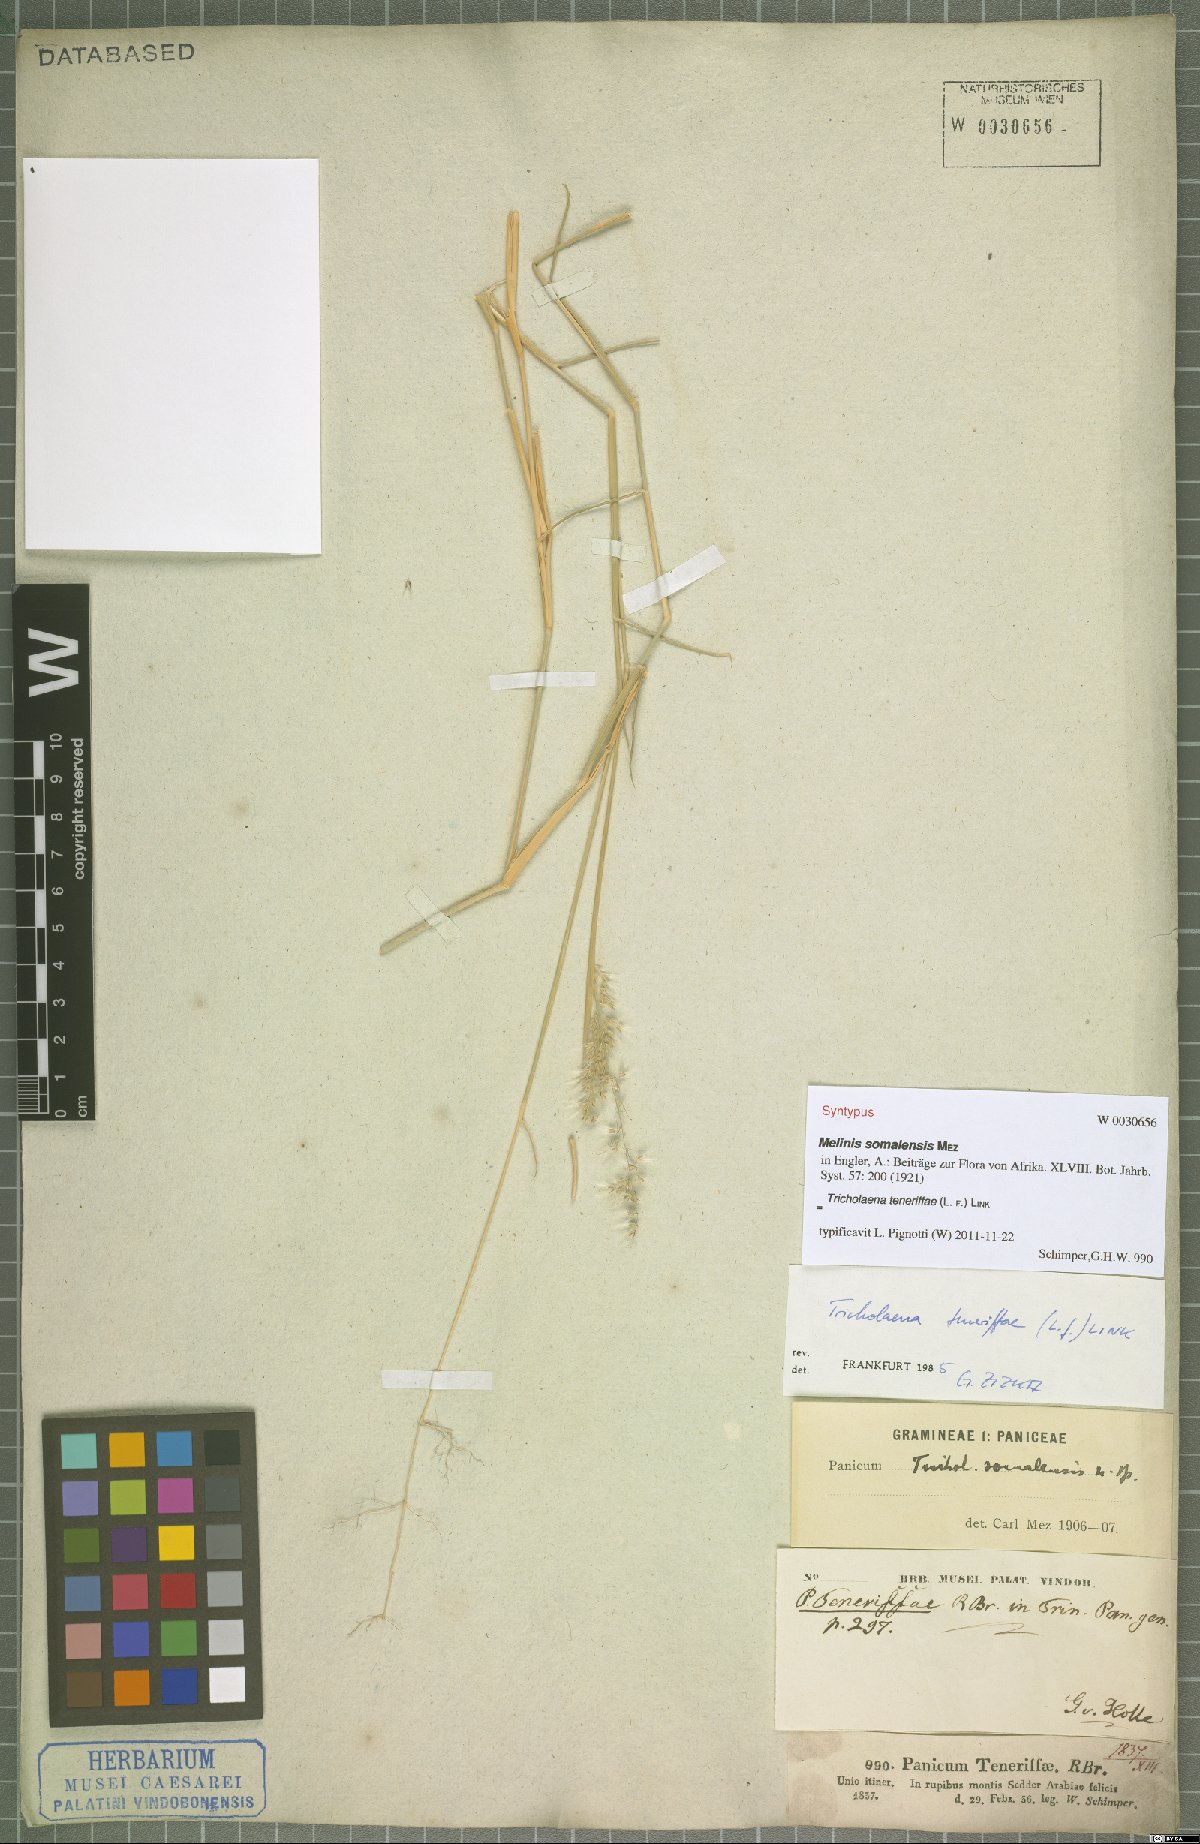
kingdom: Plantae
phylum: Tracheophyta
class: Liliopsida
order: Poales
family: Poaceae
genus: Tricholaena
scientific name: Tricholaena teneriffae
